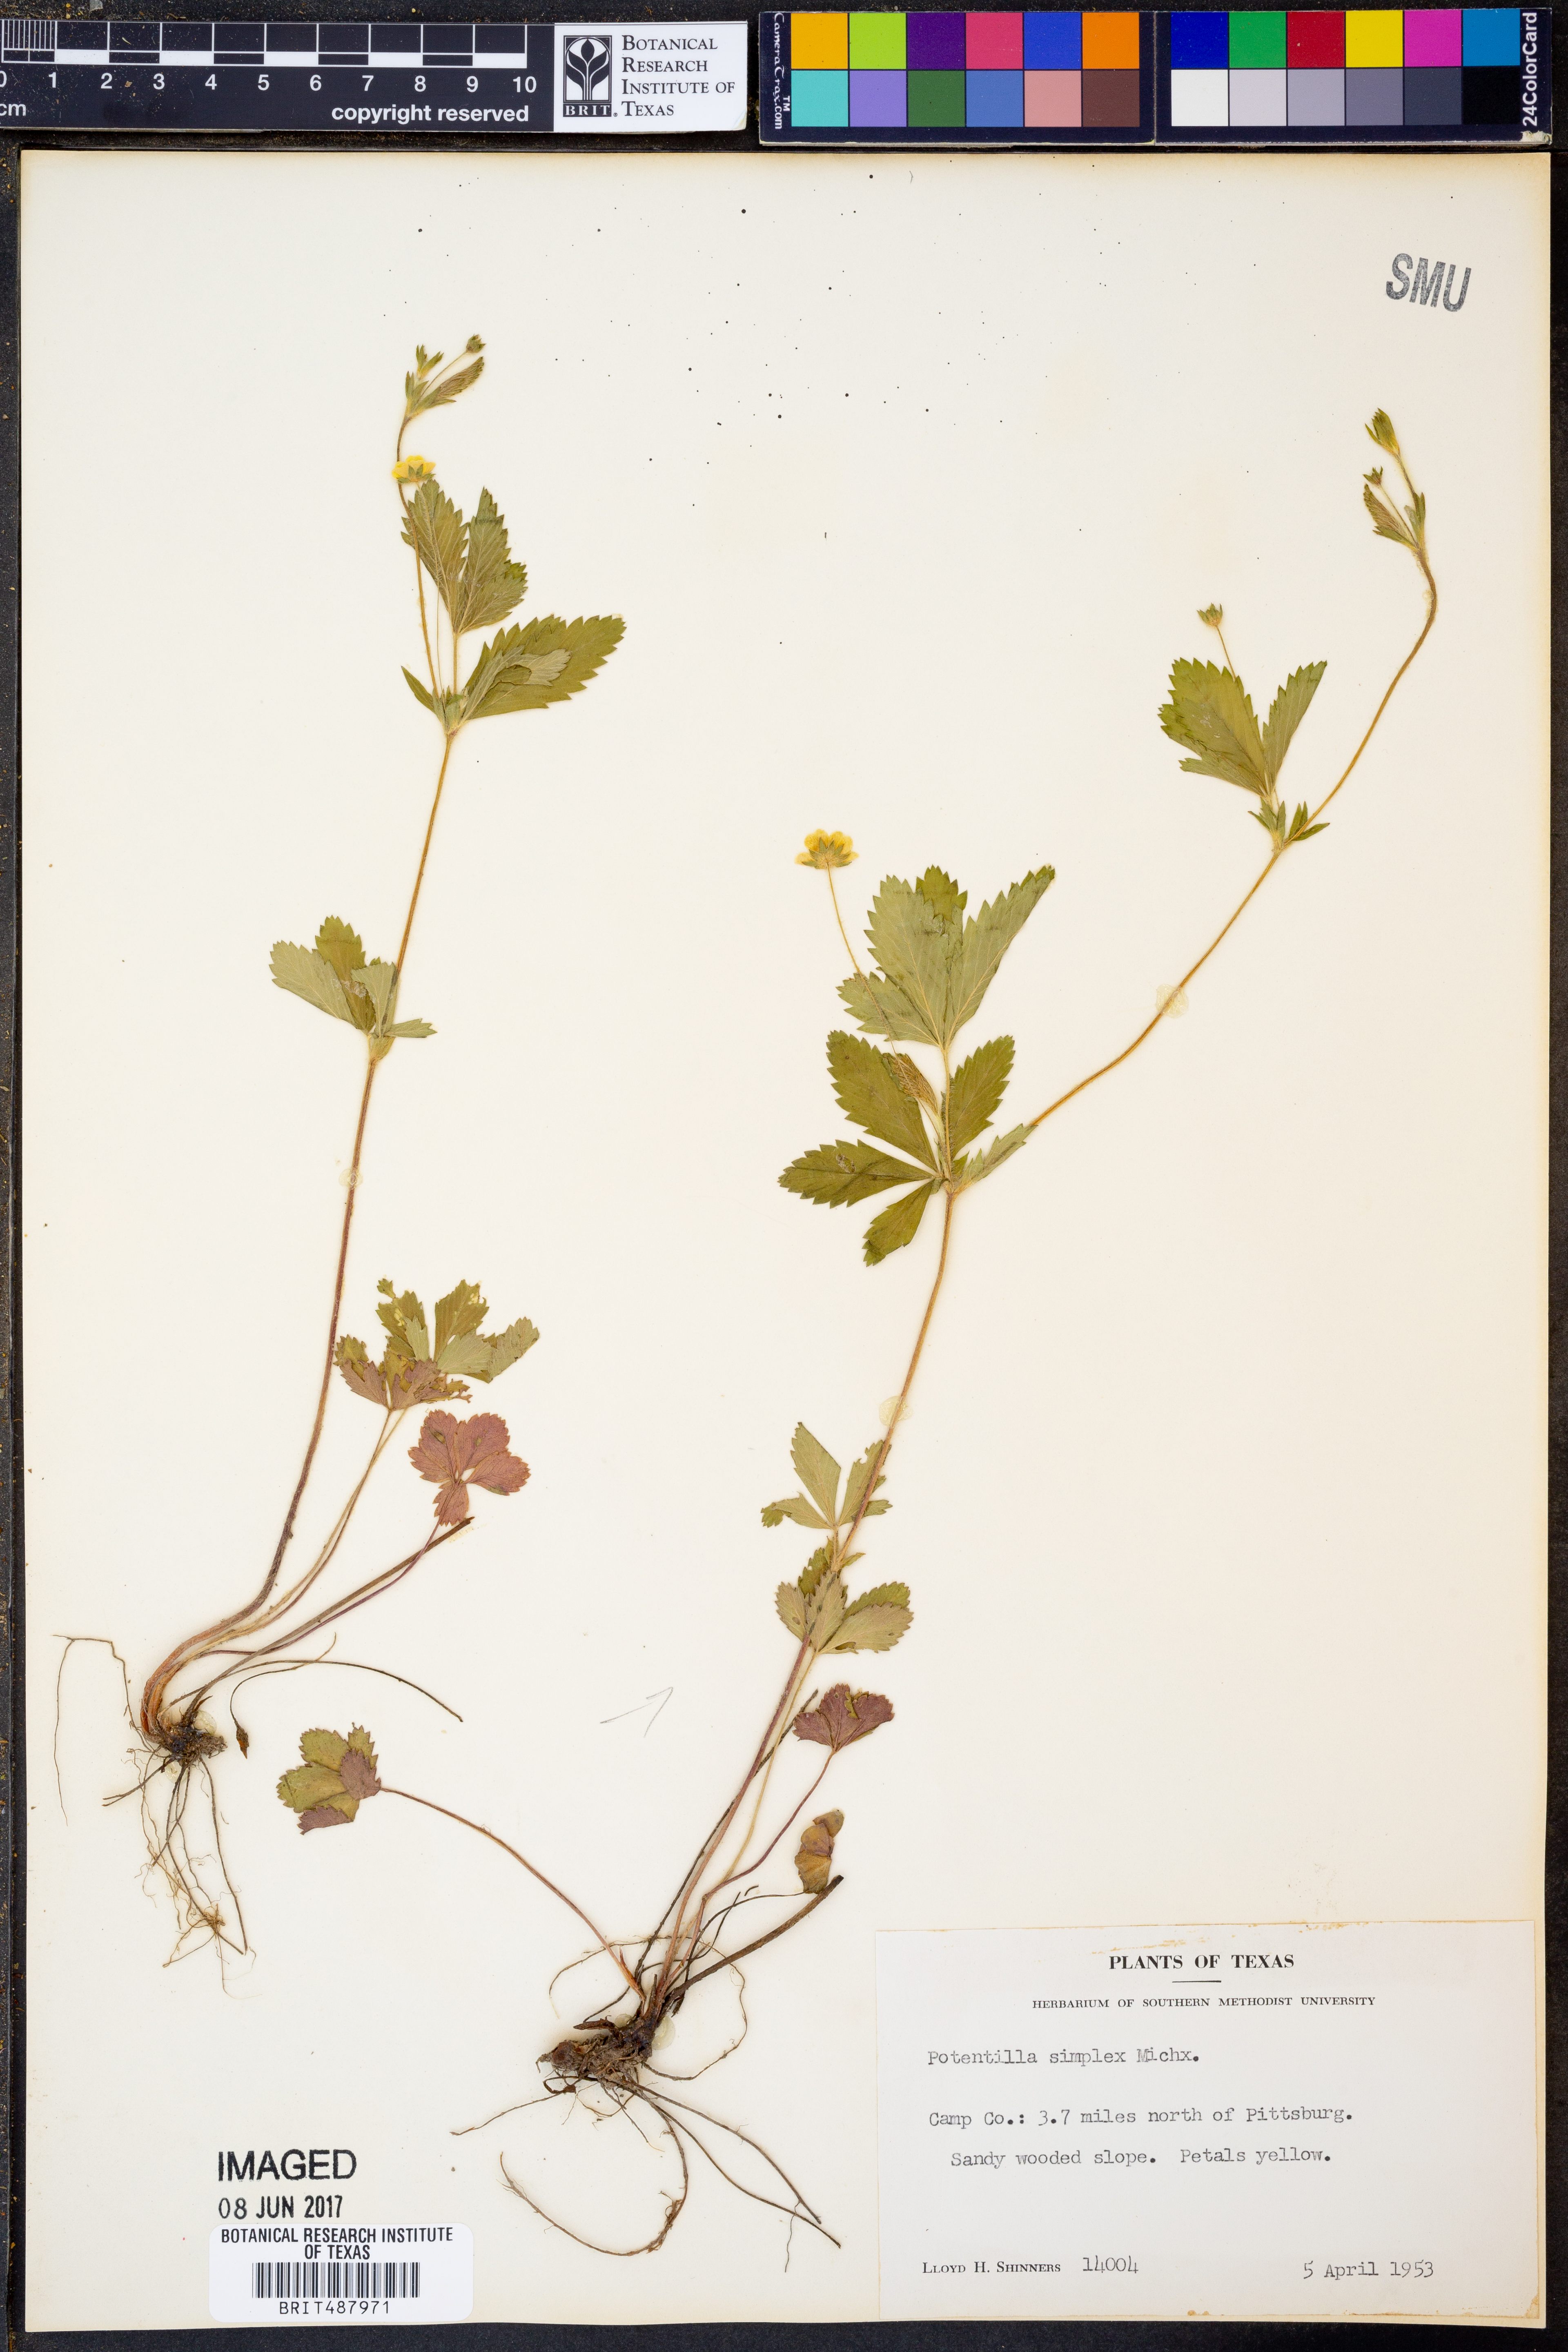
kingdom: Plantae
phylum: Tracheophyta
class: Magnoliopsida
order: Rosales
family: Rosaceae
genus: Potentilla
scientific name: Potentilla simplex
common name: Old field cinquefoil
